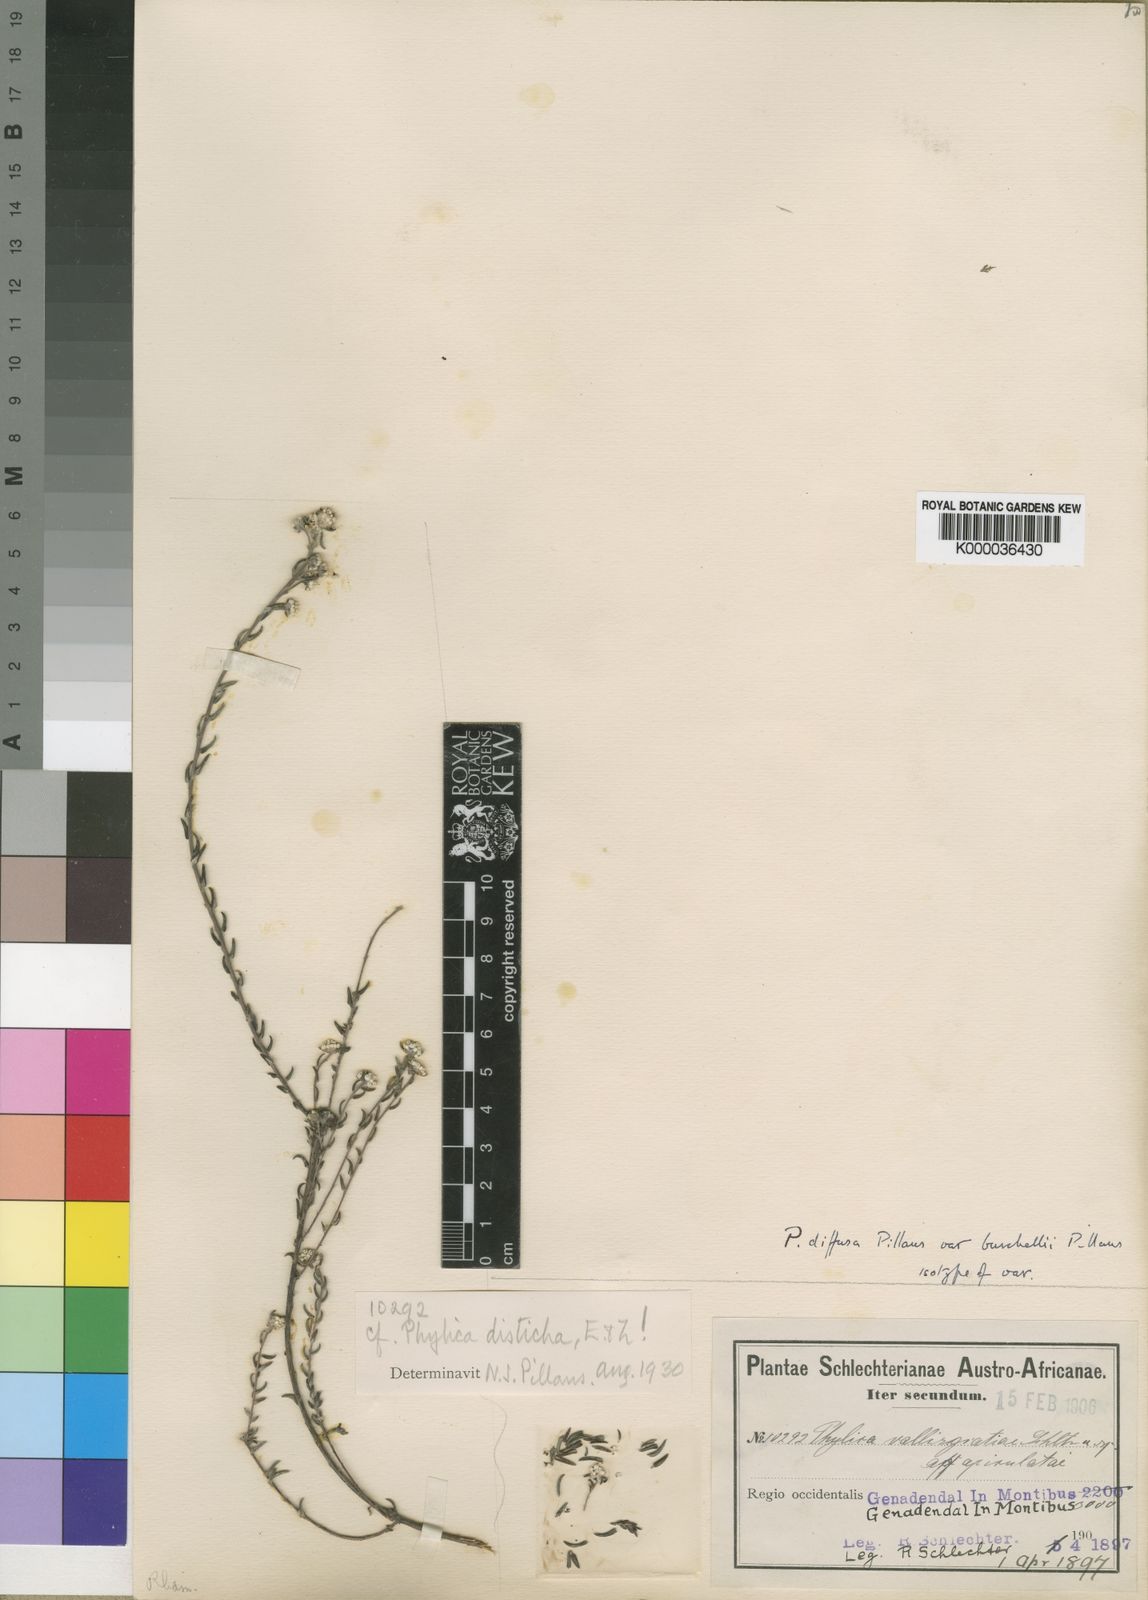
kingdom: Plantae
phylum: Tracheophyta
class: Magnoliopsida
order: Rosales
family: Rhamnaceae
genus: Phylica
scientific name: Phylica diffusa
